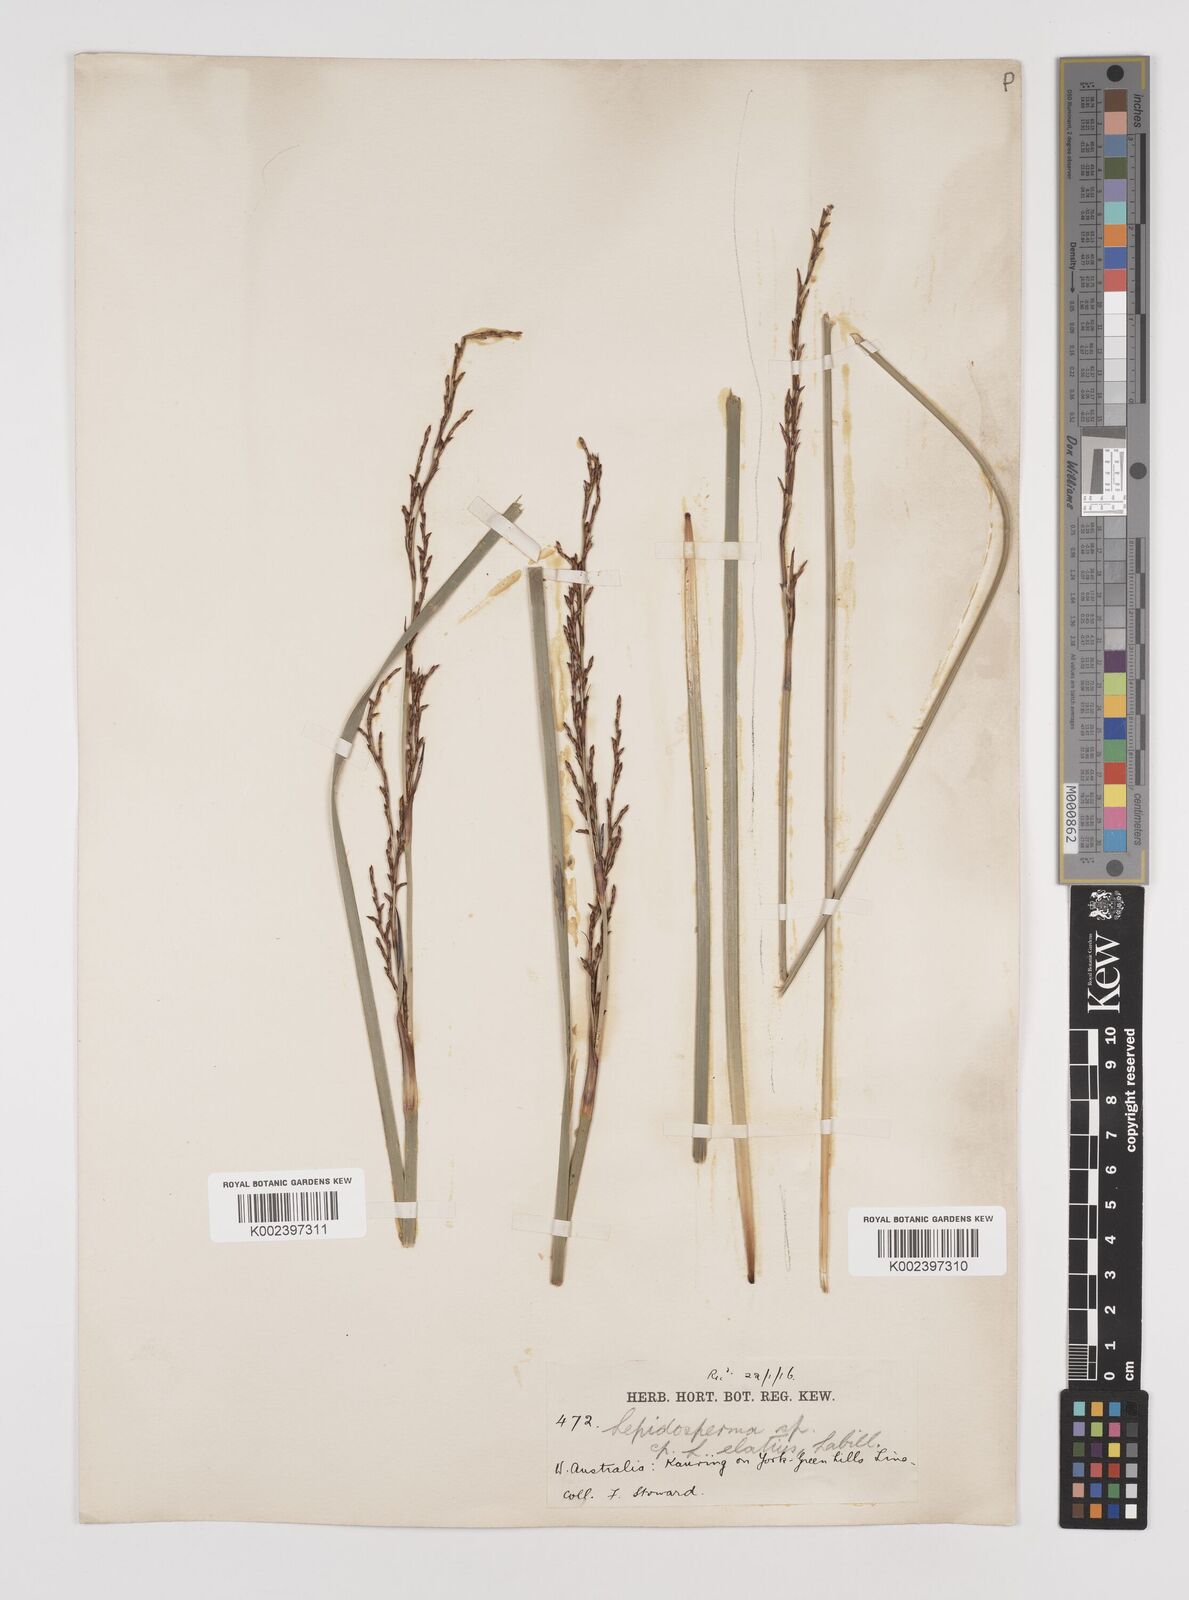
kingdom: Plantae
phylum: Tracheophyta
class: Liliopsida
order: Poales
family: Cyperaceae
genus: Lepidosperma
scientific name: Lepidosperma
